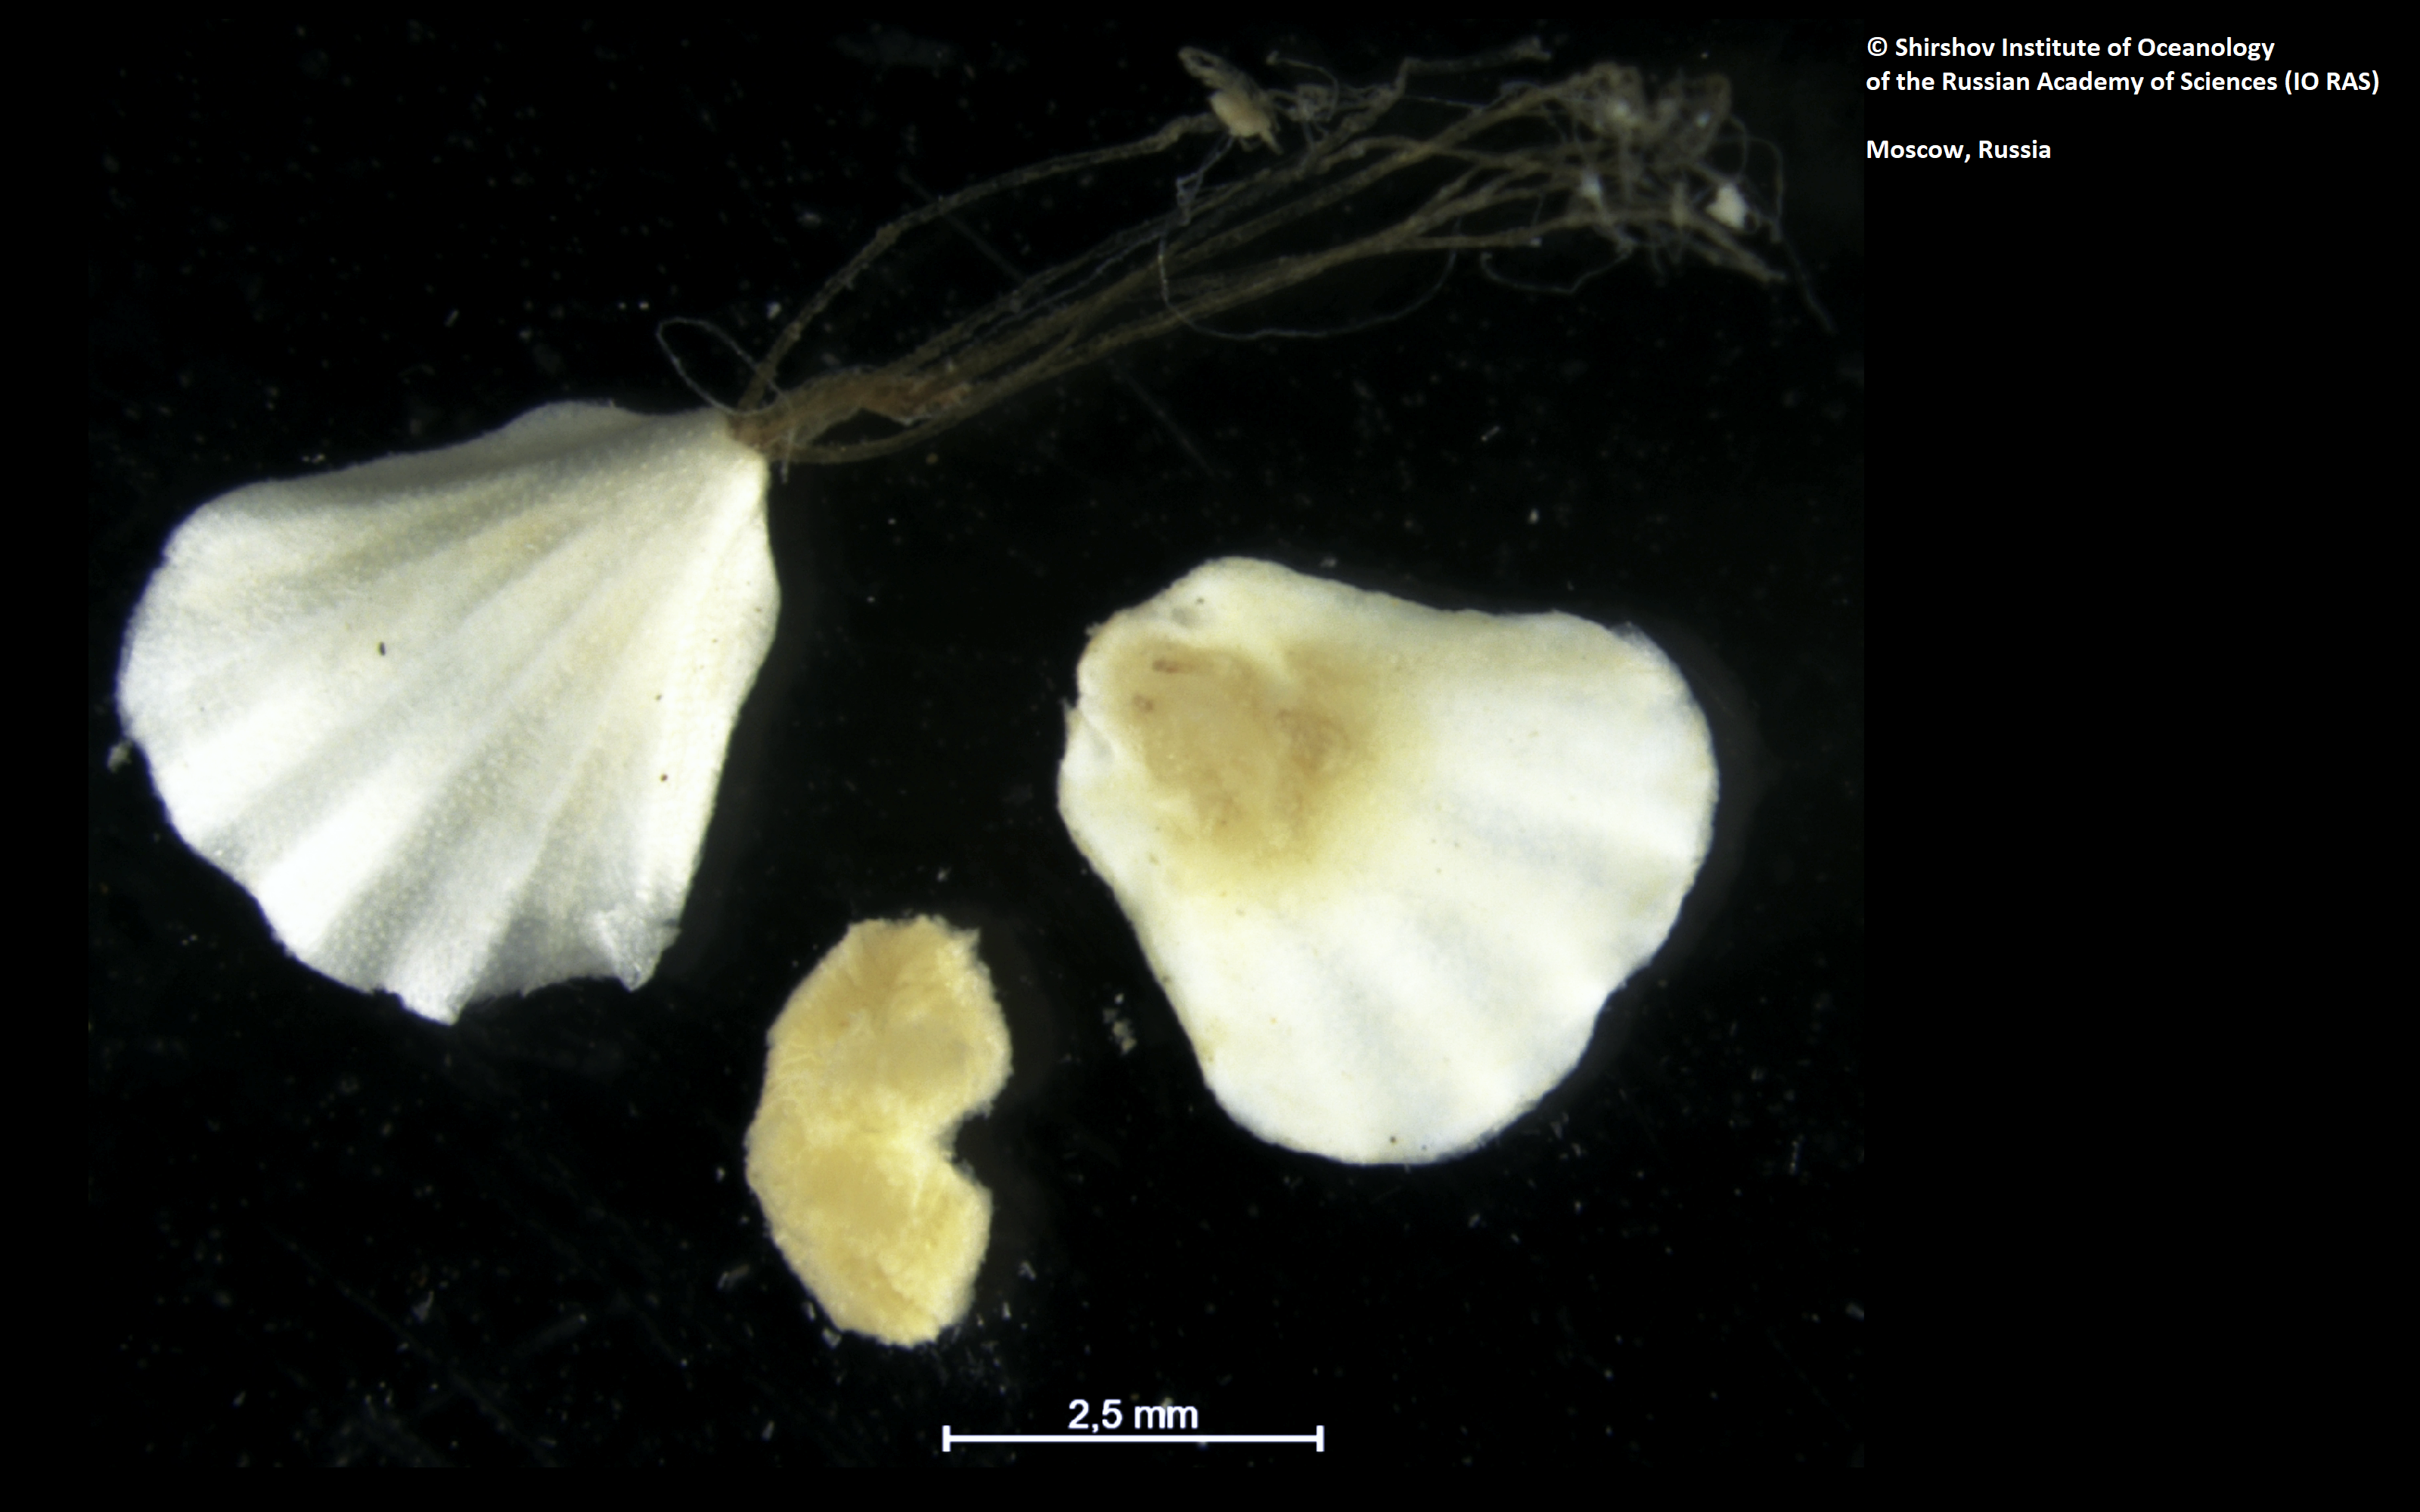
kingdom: Animalia
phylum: Brachiopoda
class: Rhynchonellata
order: Terebratulida
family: Chlidonophoridae
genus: Bathynanus
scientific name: Bathynanus rhizopodus
